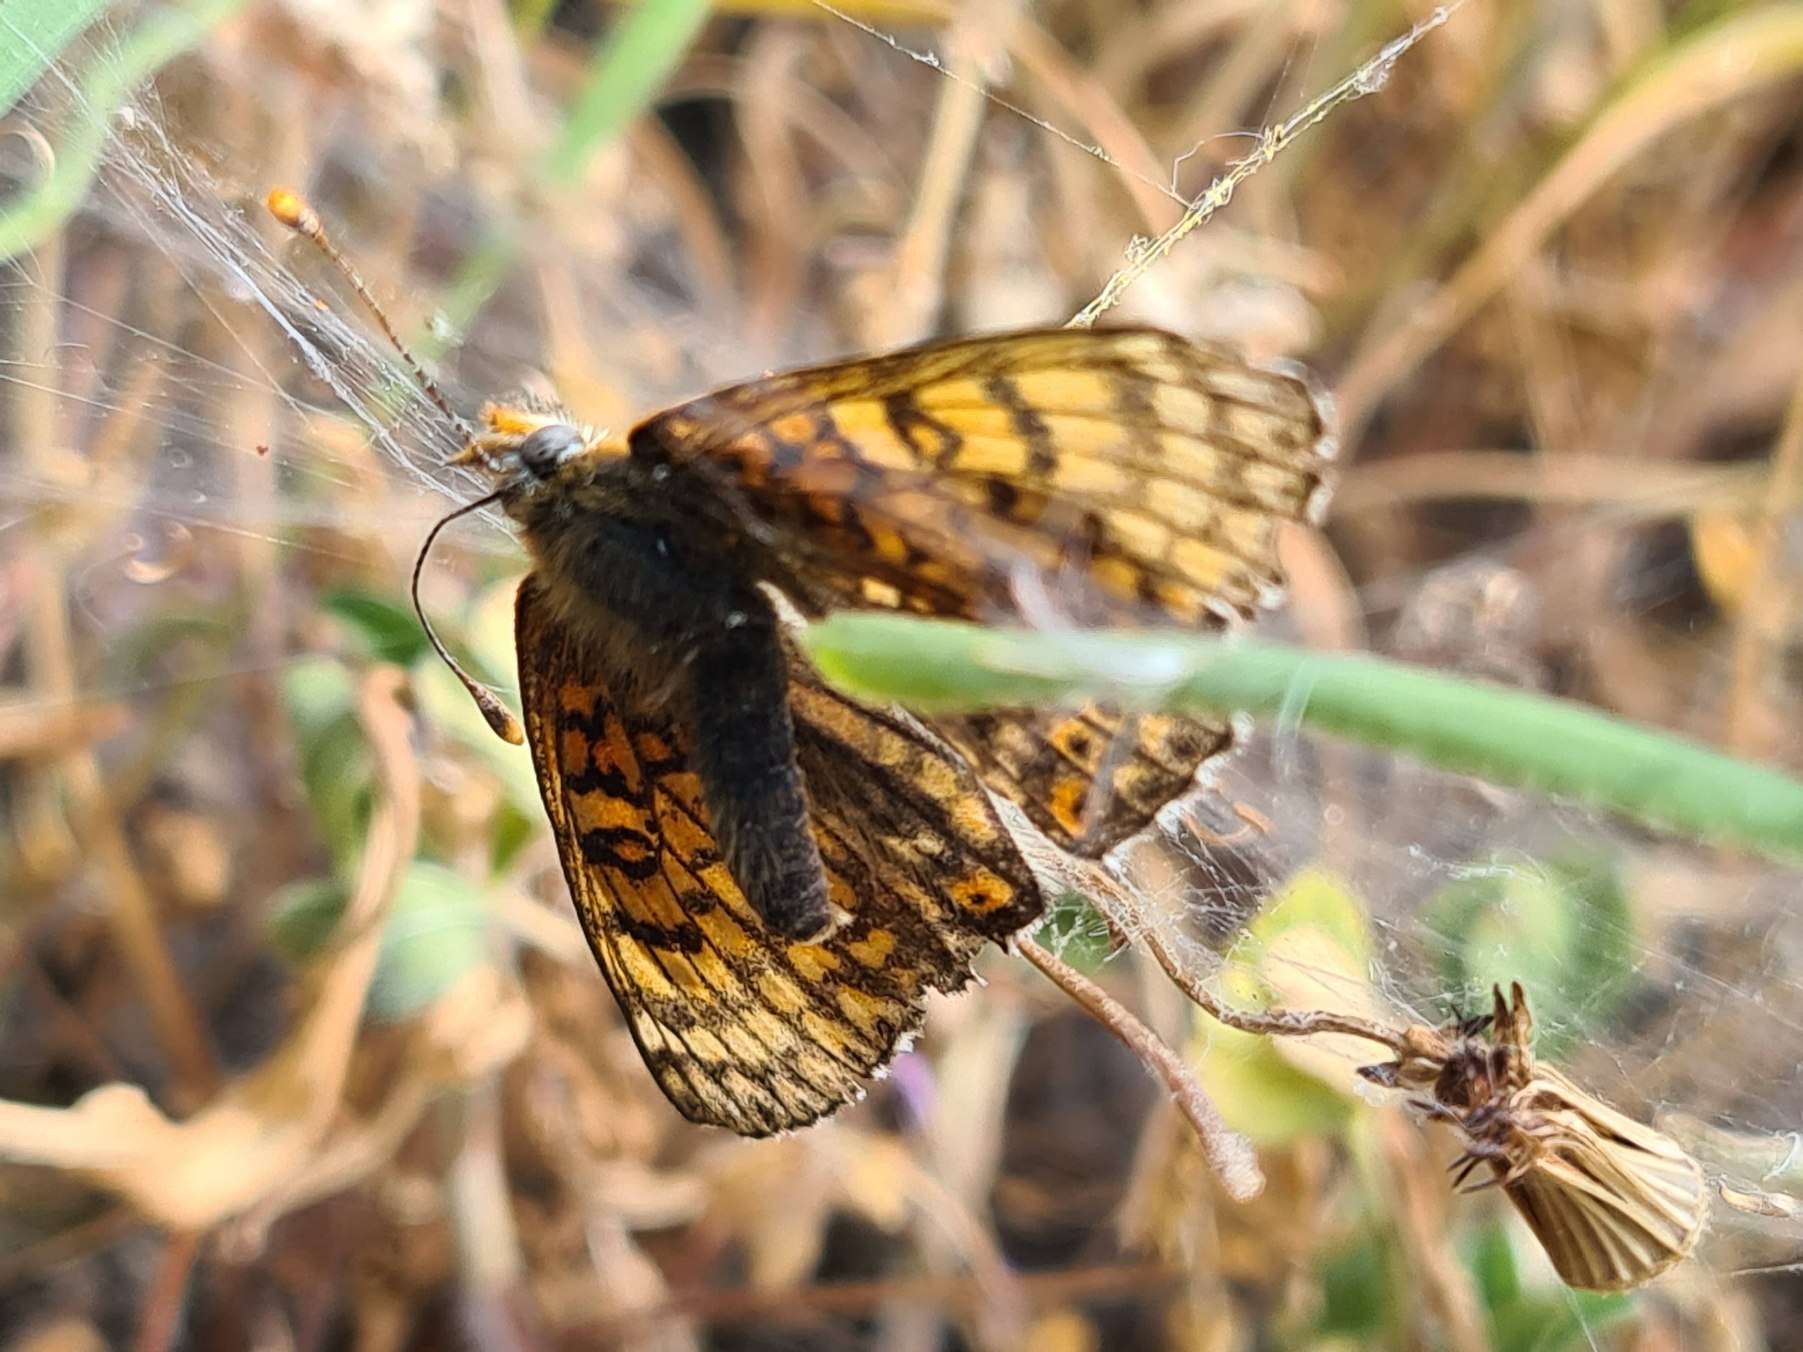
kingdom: Animalia
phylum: Arthropoda
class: Insecta
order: Lepidoptera
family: Nymphalidae
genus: Melitaea
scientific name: Melitaea cinxia
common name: Okkergul pletvinge
